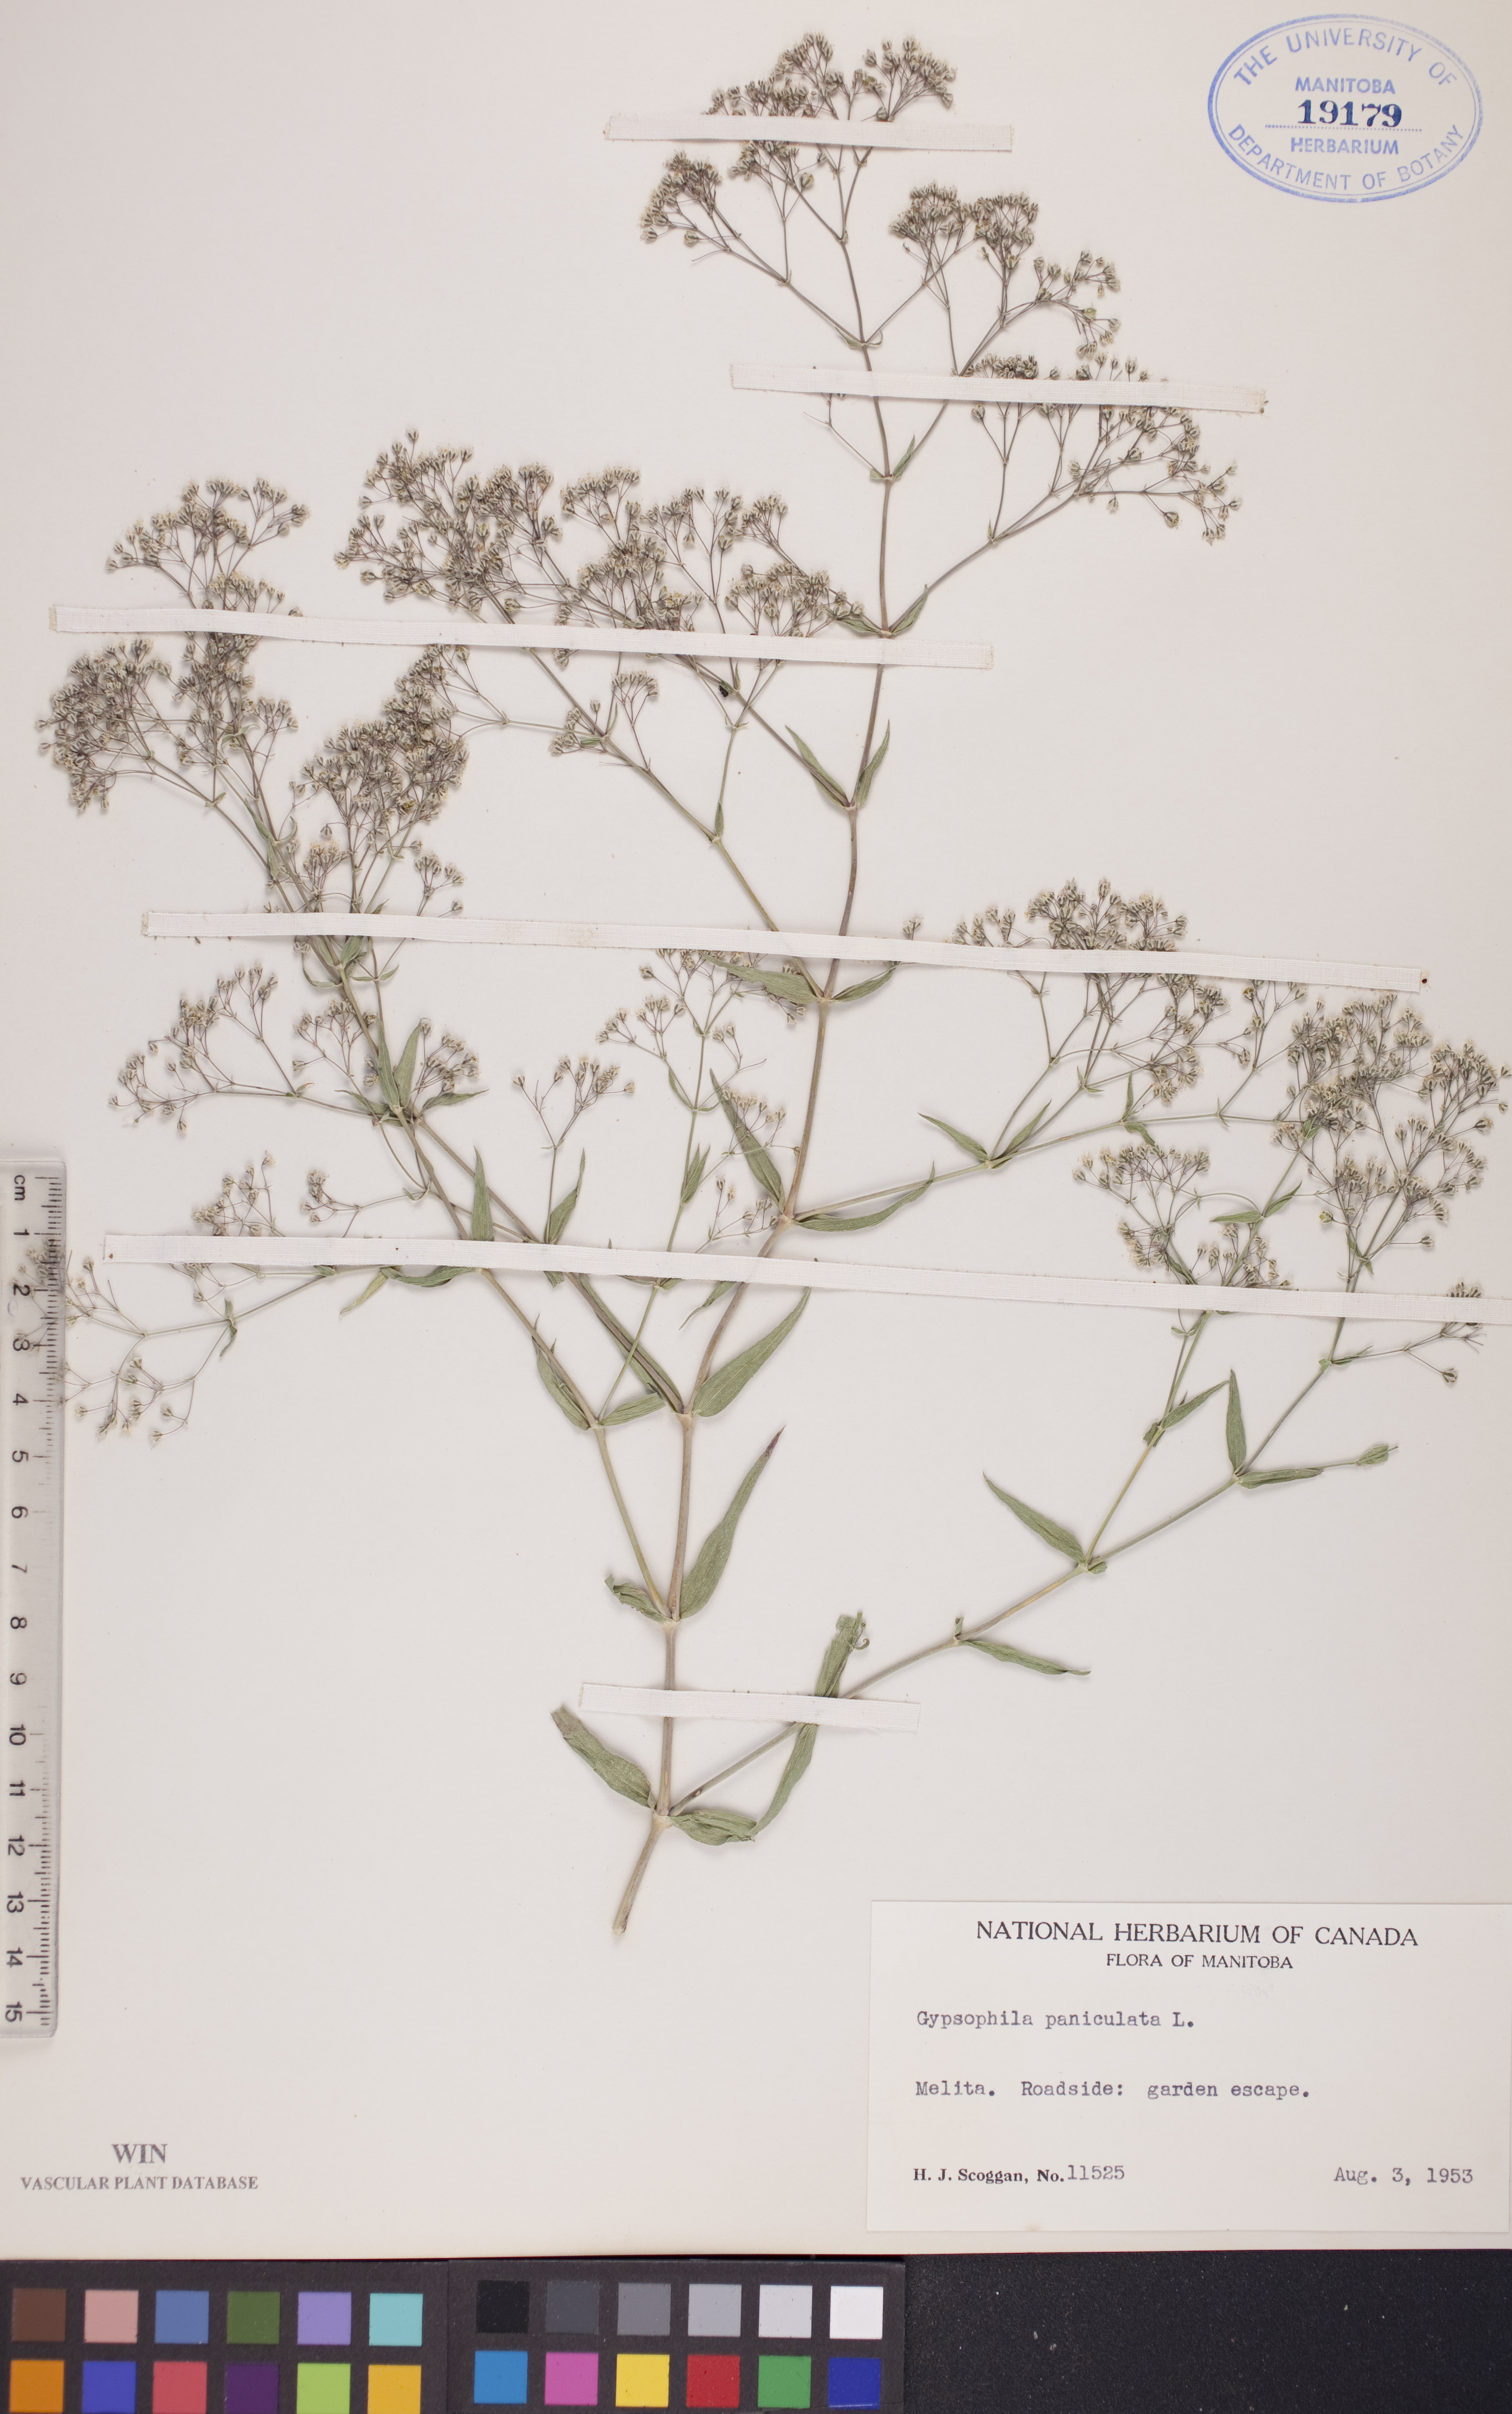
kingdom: Plantae
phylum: Tracheophyta
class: Magnoliopsida
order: Caryophyllales
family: Caryophyllaceae
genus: Gypsophila
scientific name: Gypsophila paniculata
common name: Baby's-breath
